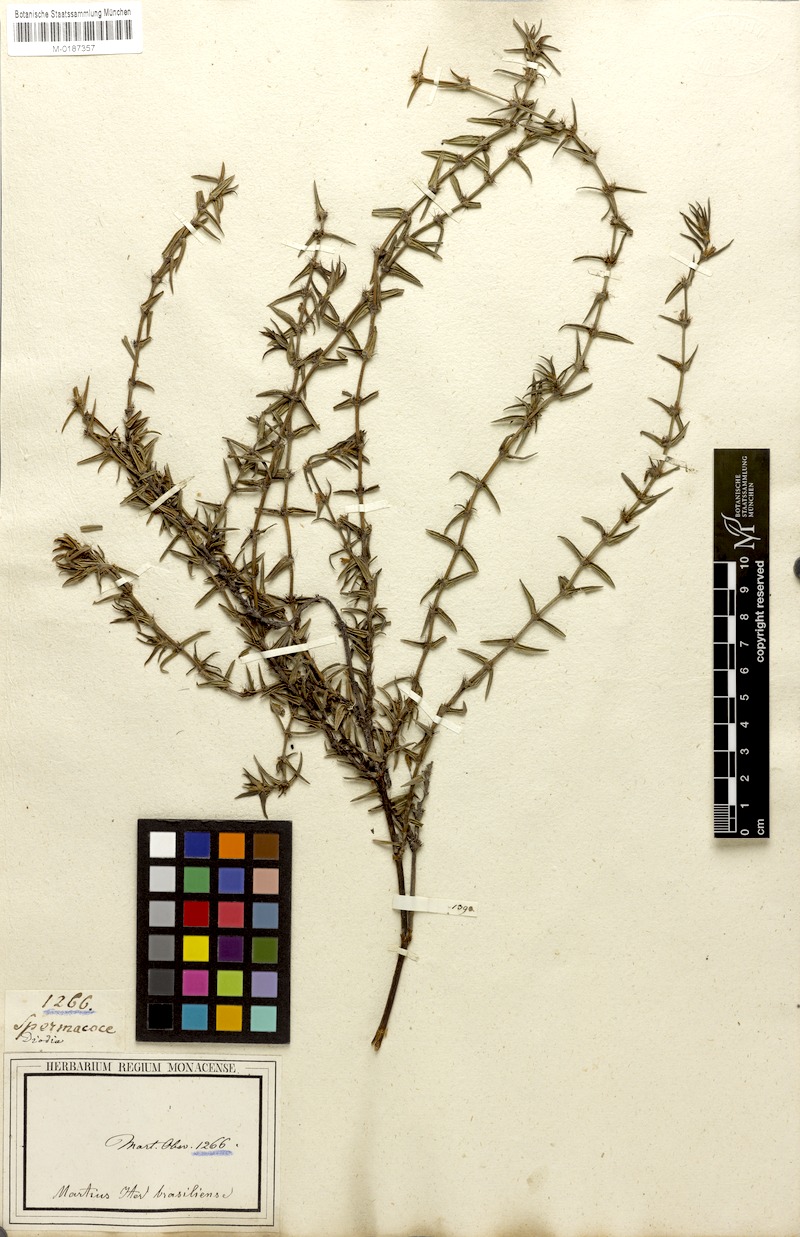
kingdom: Plantae
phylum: Tracheophyta
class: Magnoliopsida
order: Gentianales
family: Rubiaceae
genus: Hexasepalum
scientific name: Hexasepalum rosmarinifolium
